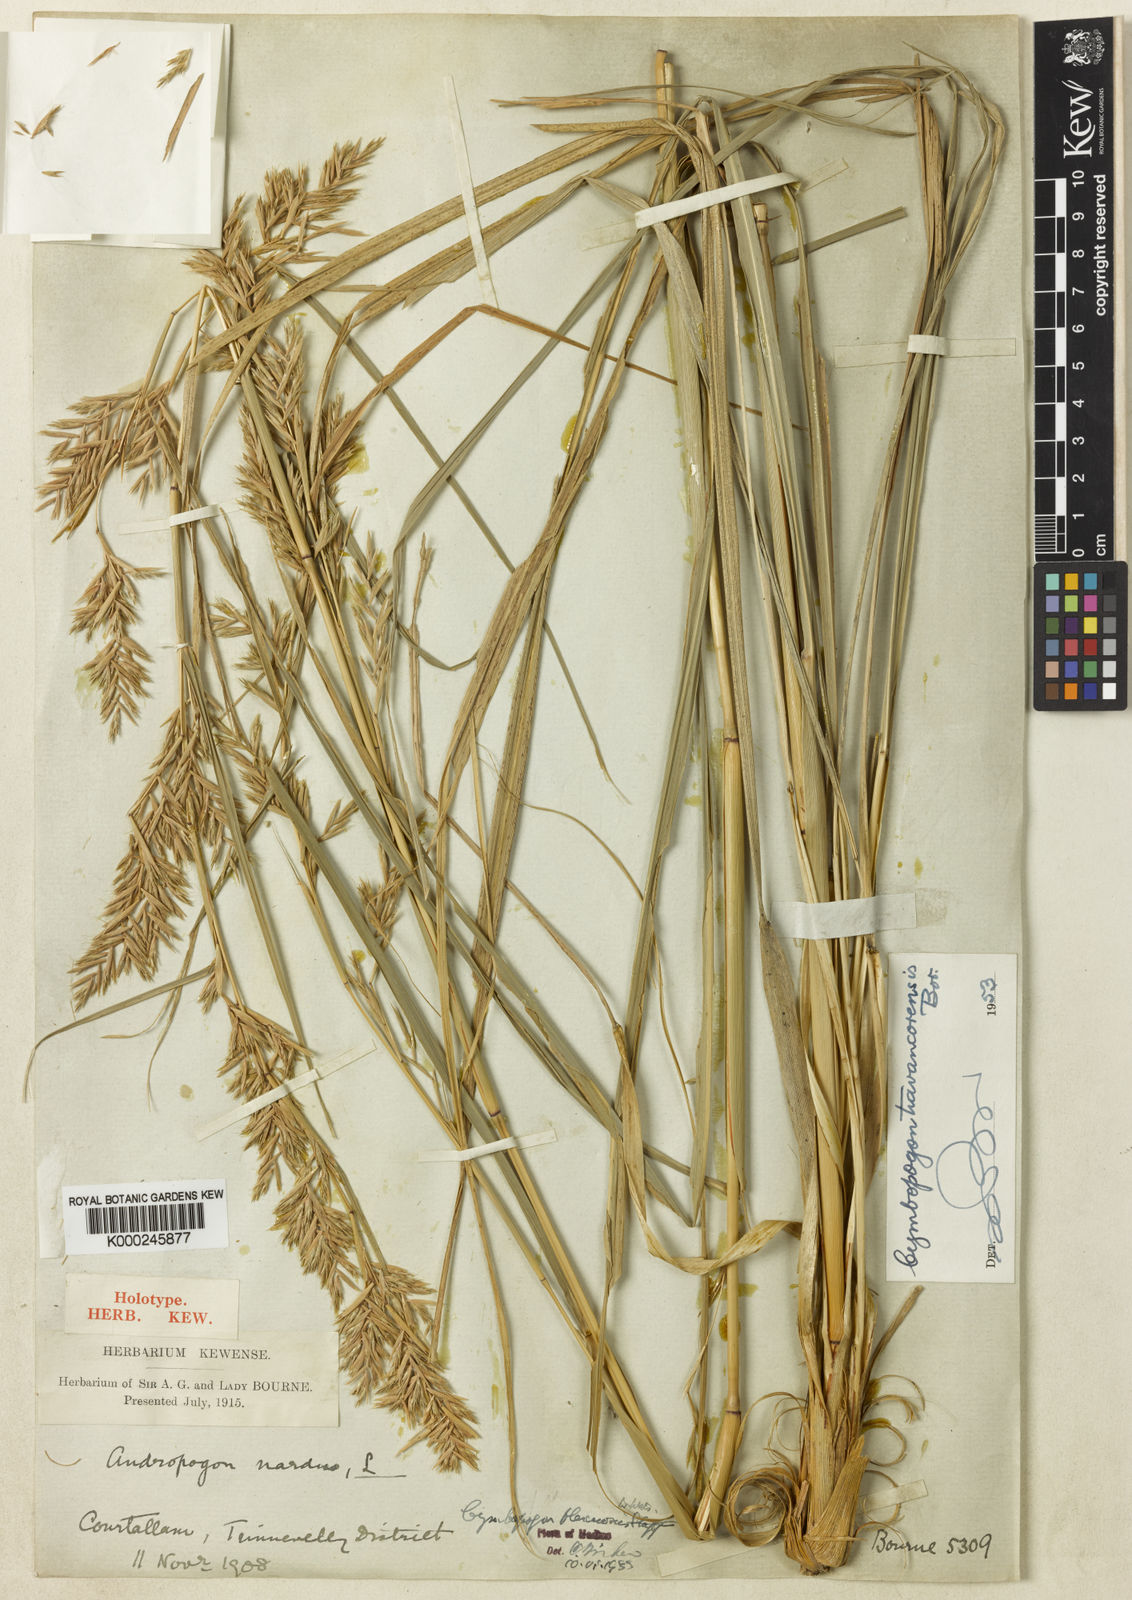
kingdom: Plantae
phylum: Tracheophyta
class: Liliopsida
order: Poales
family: Poaceae
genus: Cymbopogon
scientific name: Cymbopogon flexuosus
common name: East indian lemongrass
